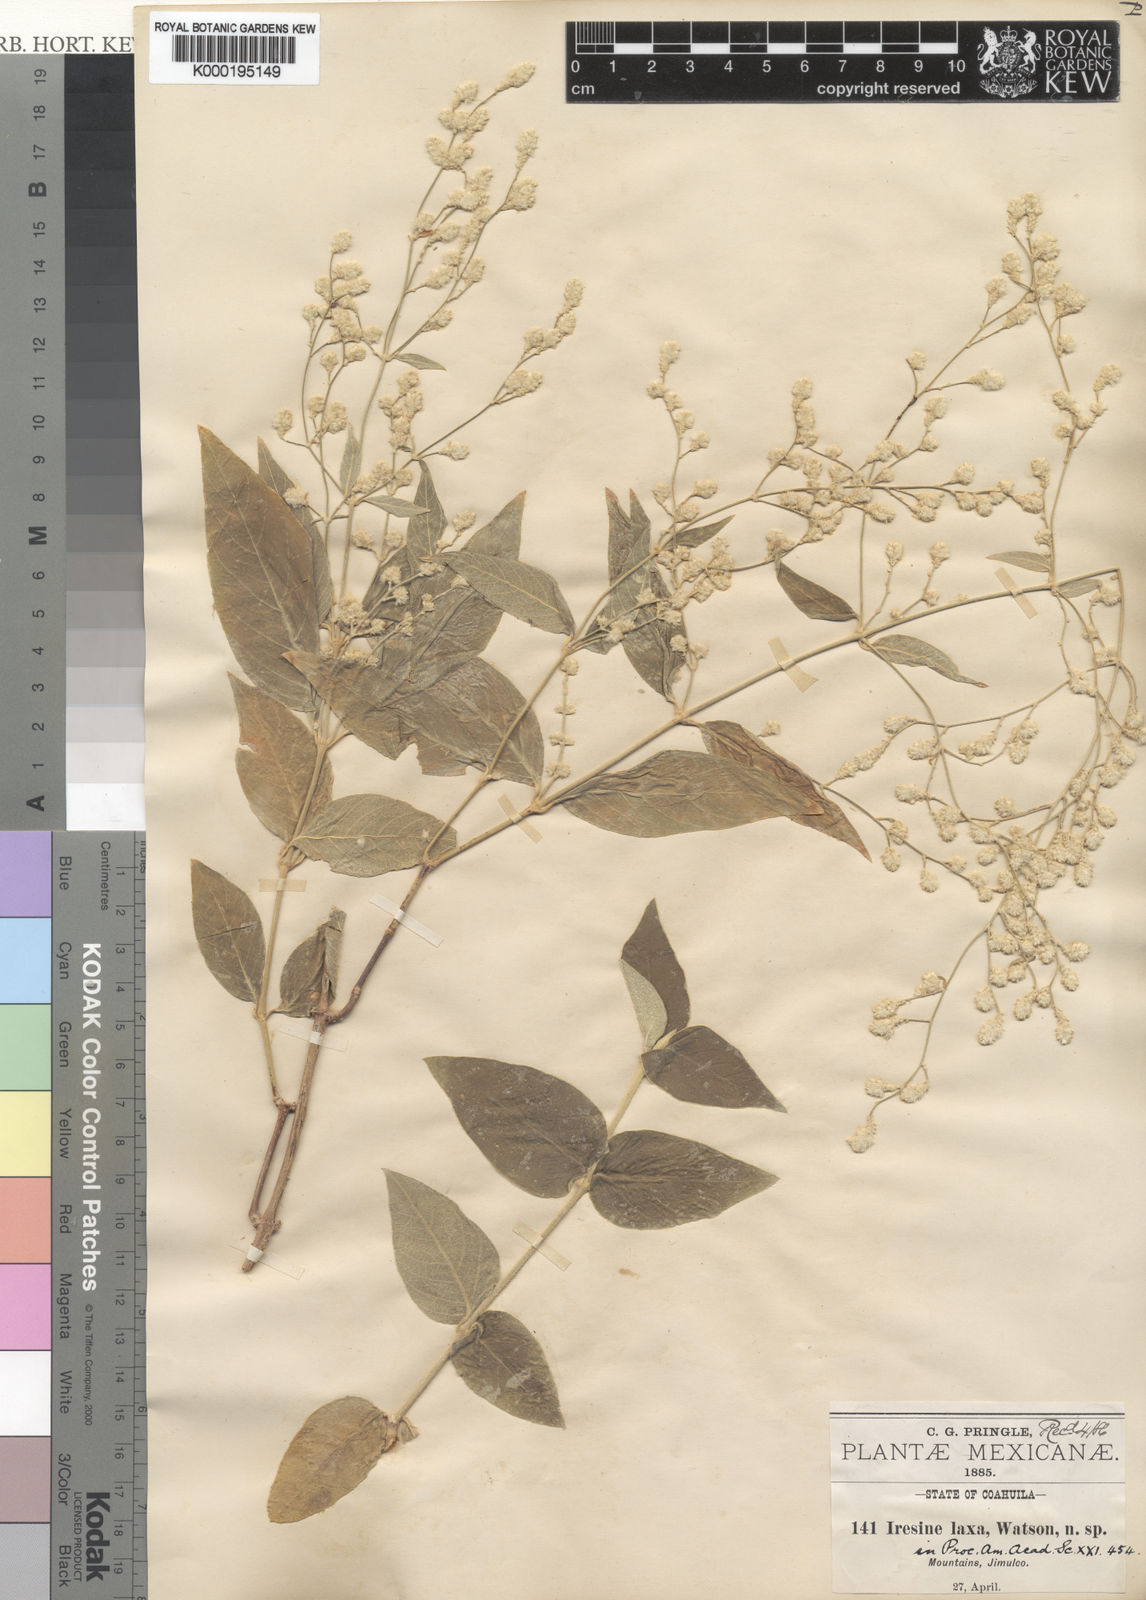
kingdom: Plantae
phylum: Tracheophyta
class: Magnoliopsida
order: Caryophyllales
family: Amaranthaceae
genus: Iresine
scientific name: Iresine latifolia
